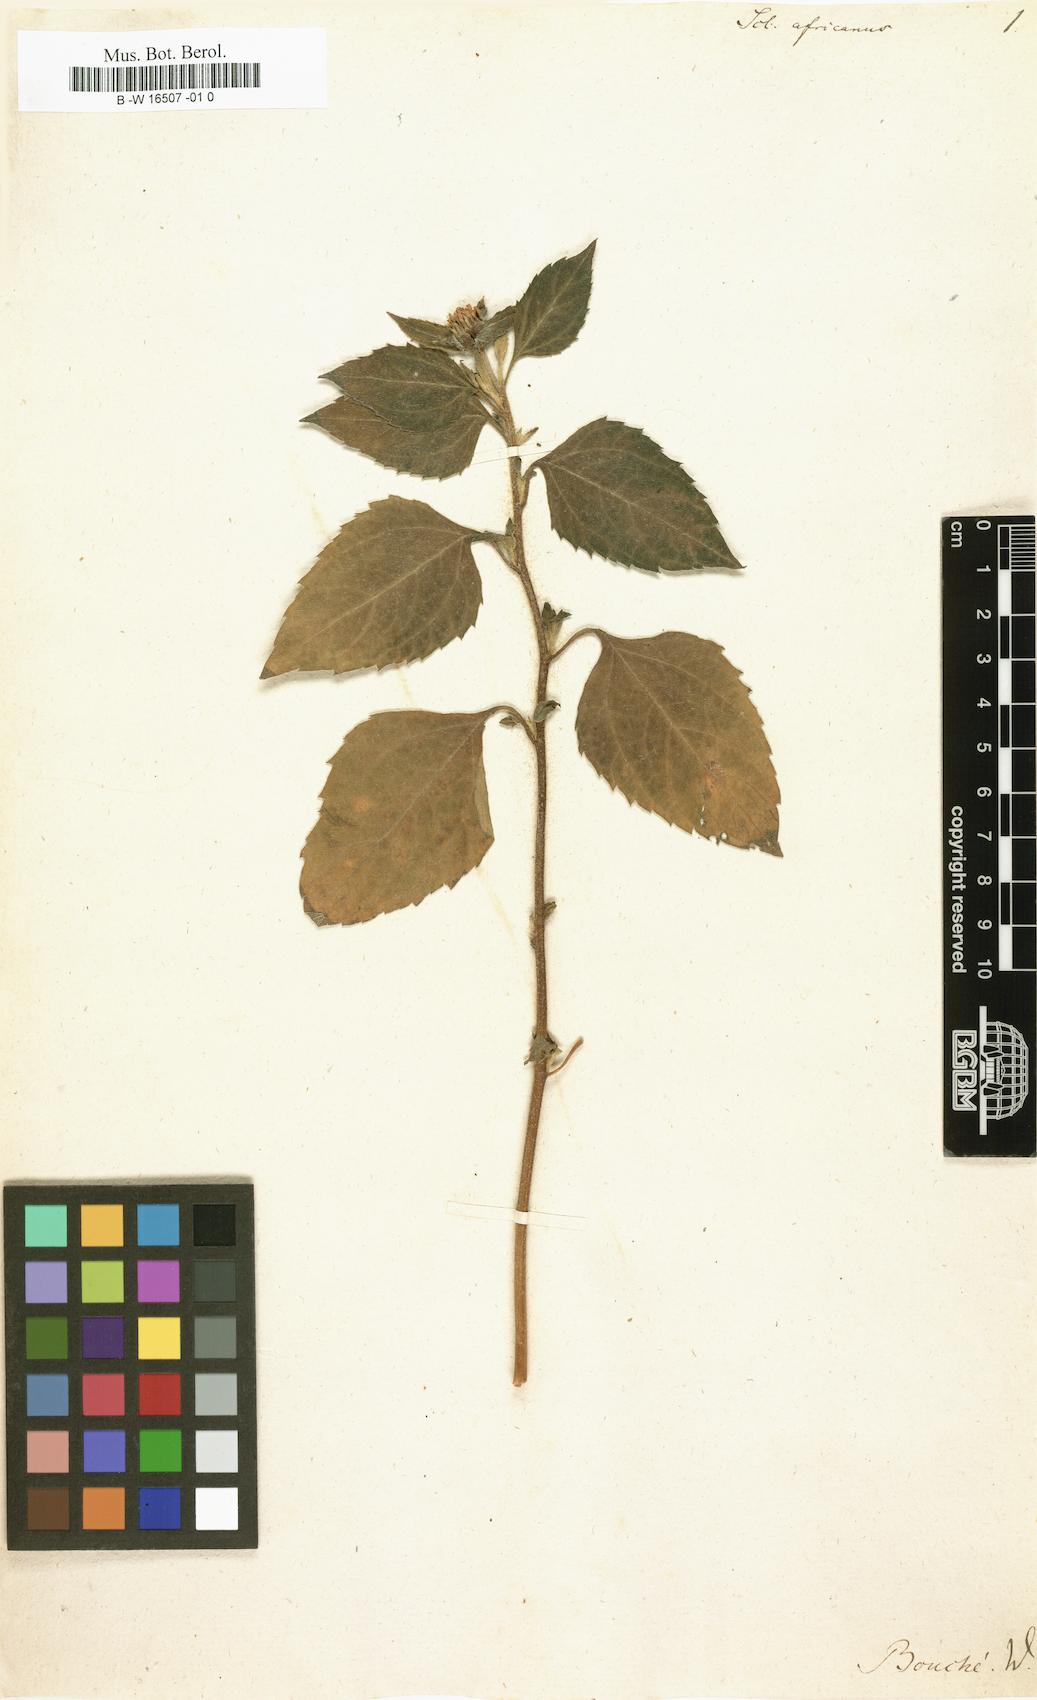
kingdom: Plantae
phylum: Tracheophyta
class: Magnoliopsida
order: Asterales
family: Asteraceae
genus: Sclerocarpus
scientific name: Sclerocarpus africanus
